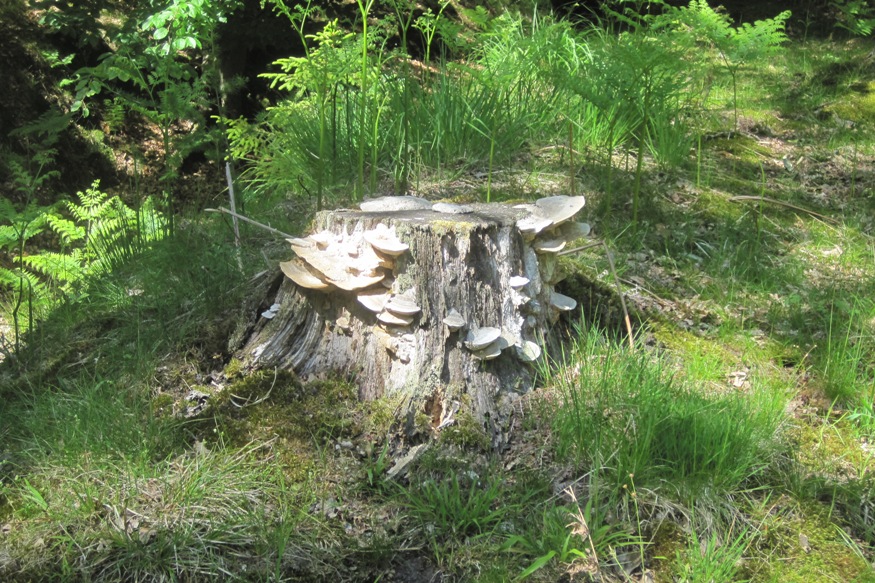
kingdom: Fungi
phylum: Basidiomycota
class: Agaricomycetes
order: Polyporales
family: Fomitopsidaceae
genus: Daedalea
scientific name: Daedalea quercina
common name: ege-labyrintsvamp
